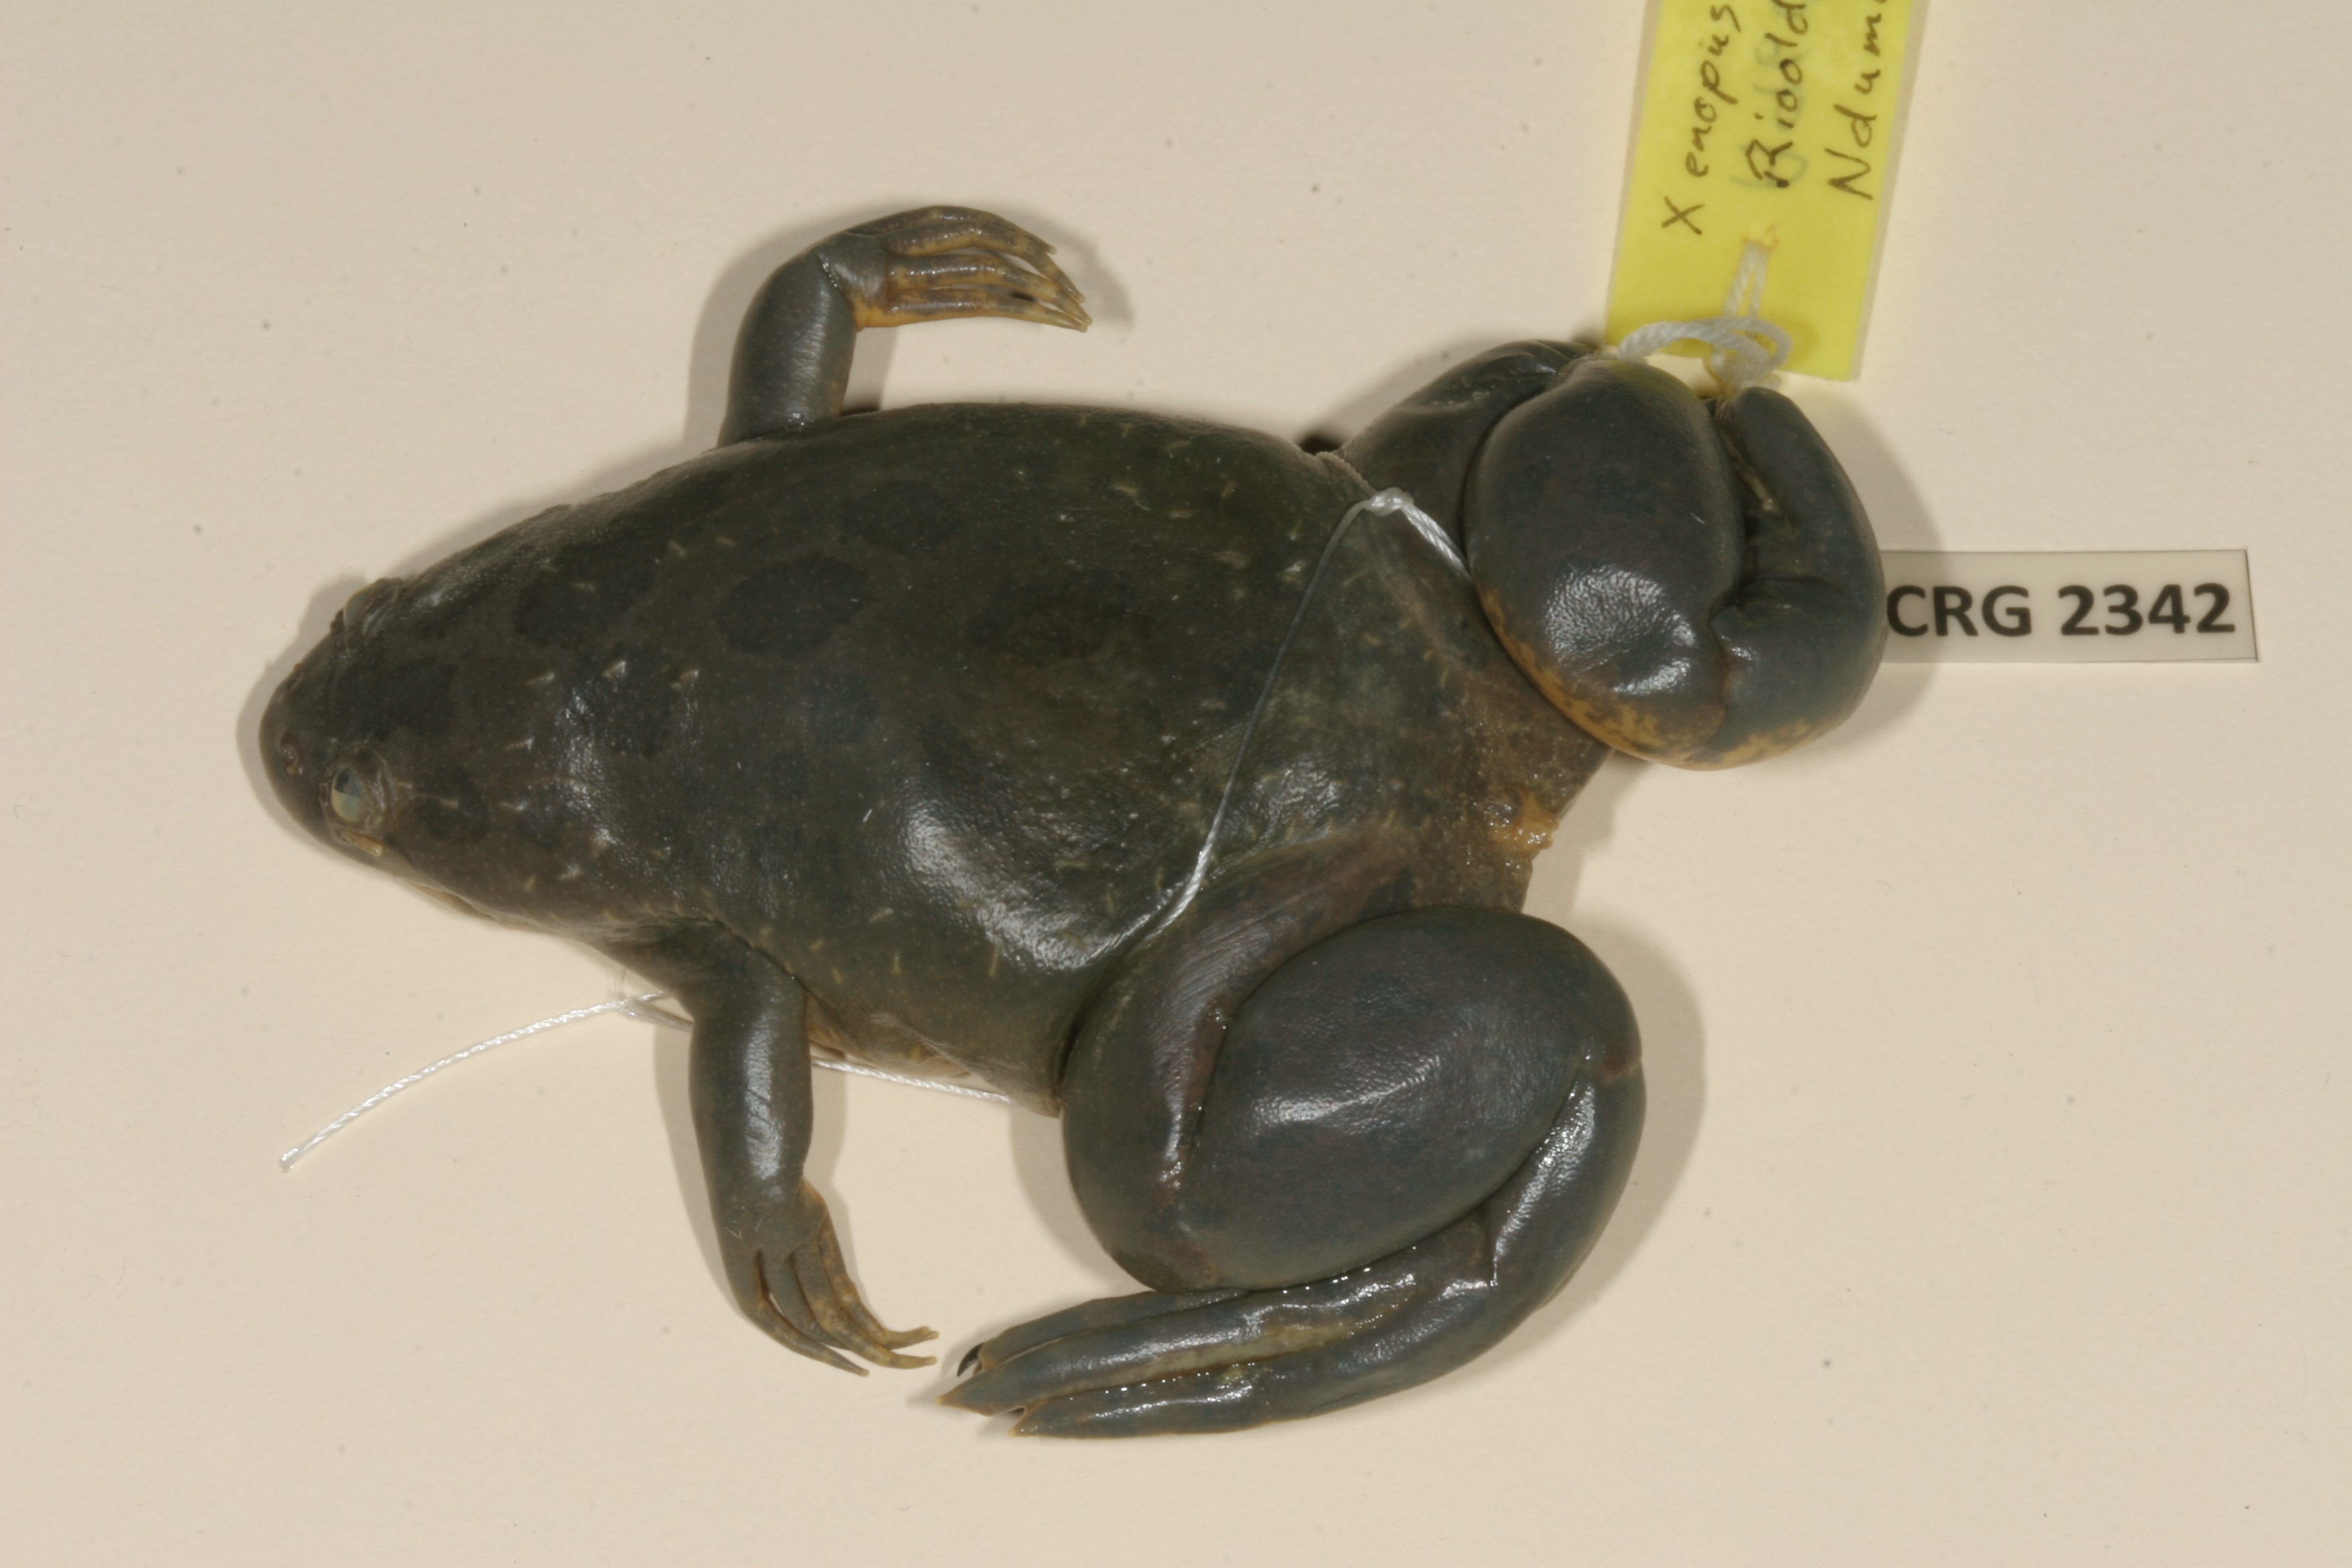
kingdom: Animalia
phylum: Chordata
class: Amphibia
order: Anura
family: Pipidae
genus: Xenopus
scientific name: Xenopus muelleri
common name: Muller's clawed frog
